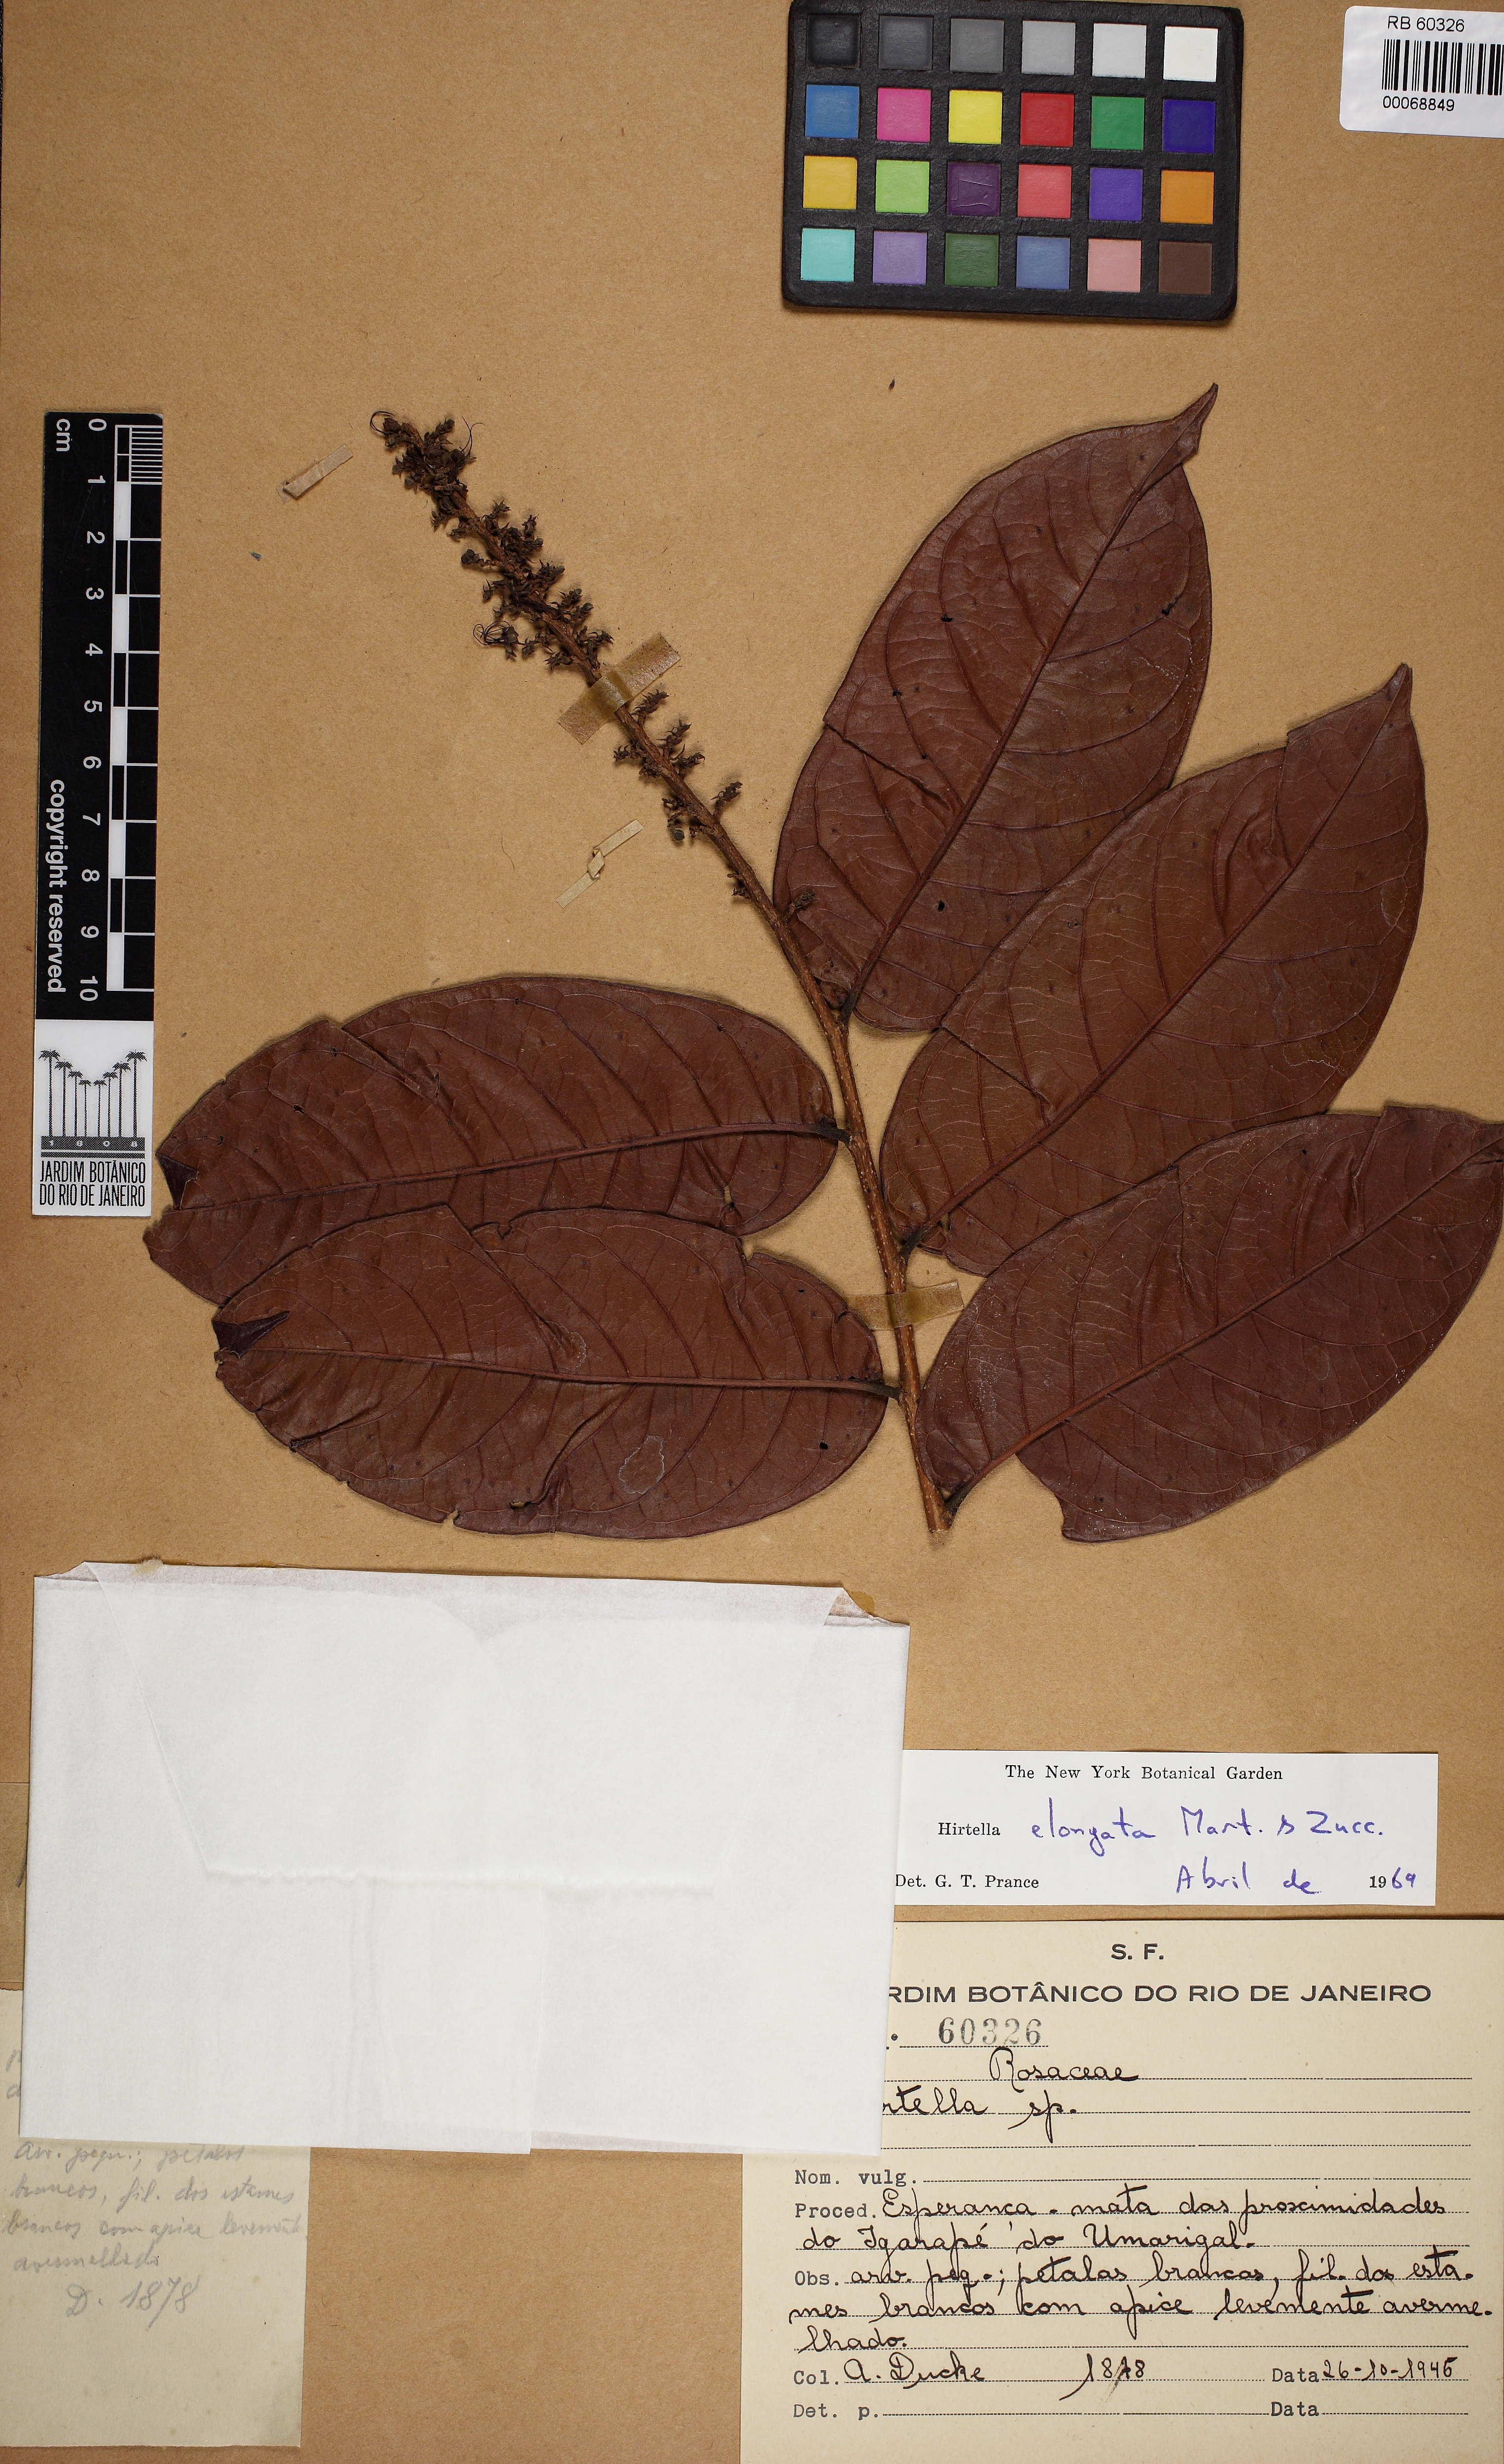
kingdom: Plantae
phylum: Tracheophyta
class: Magnoliopsida
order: Malpighiales
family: Chrysobalanaceae
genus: Hirtella
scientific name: Hirtella elongata
